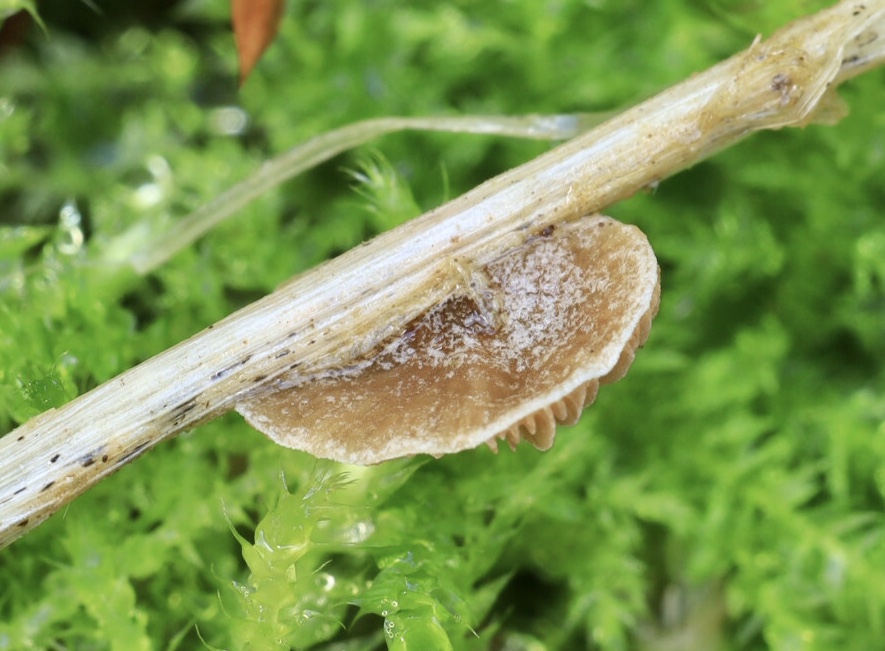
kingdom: Fungi
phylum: Basidiomycota
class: Agaricomycetes
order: Agaricales
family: Strophariaceae
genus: Deconica
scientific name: Deconica phillipsii
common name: almindelig stråhat
